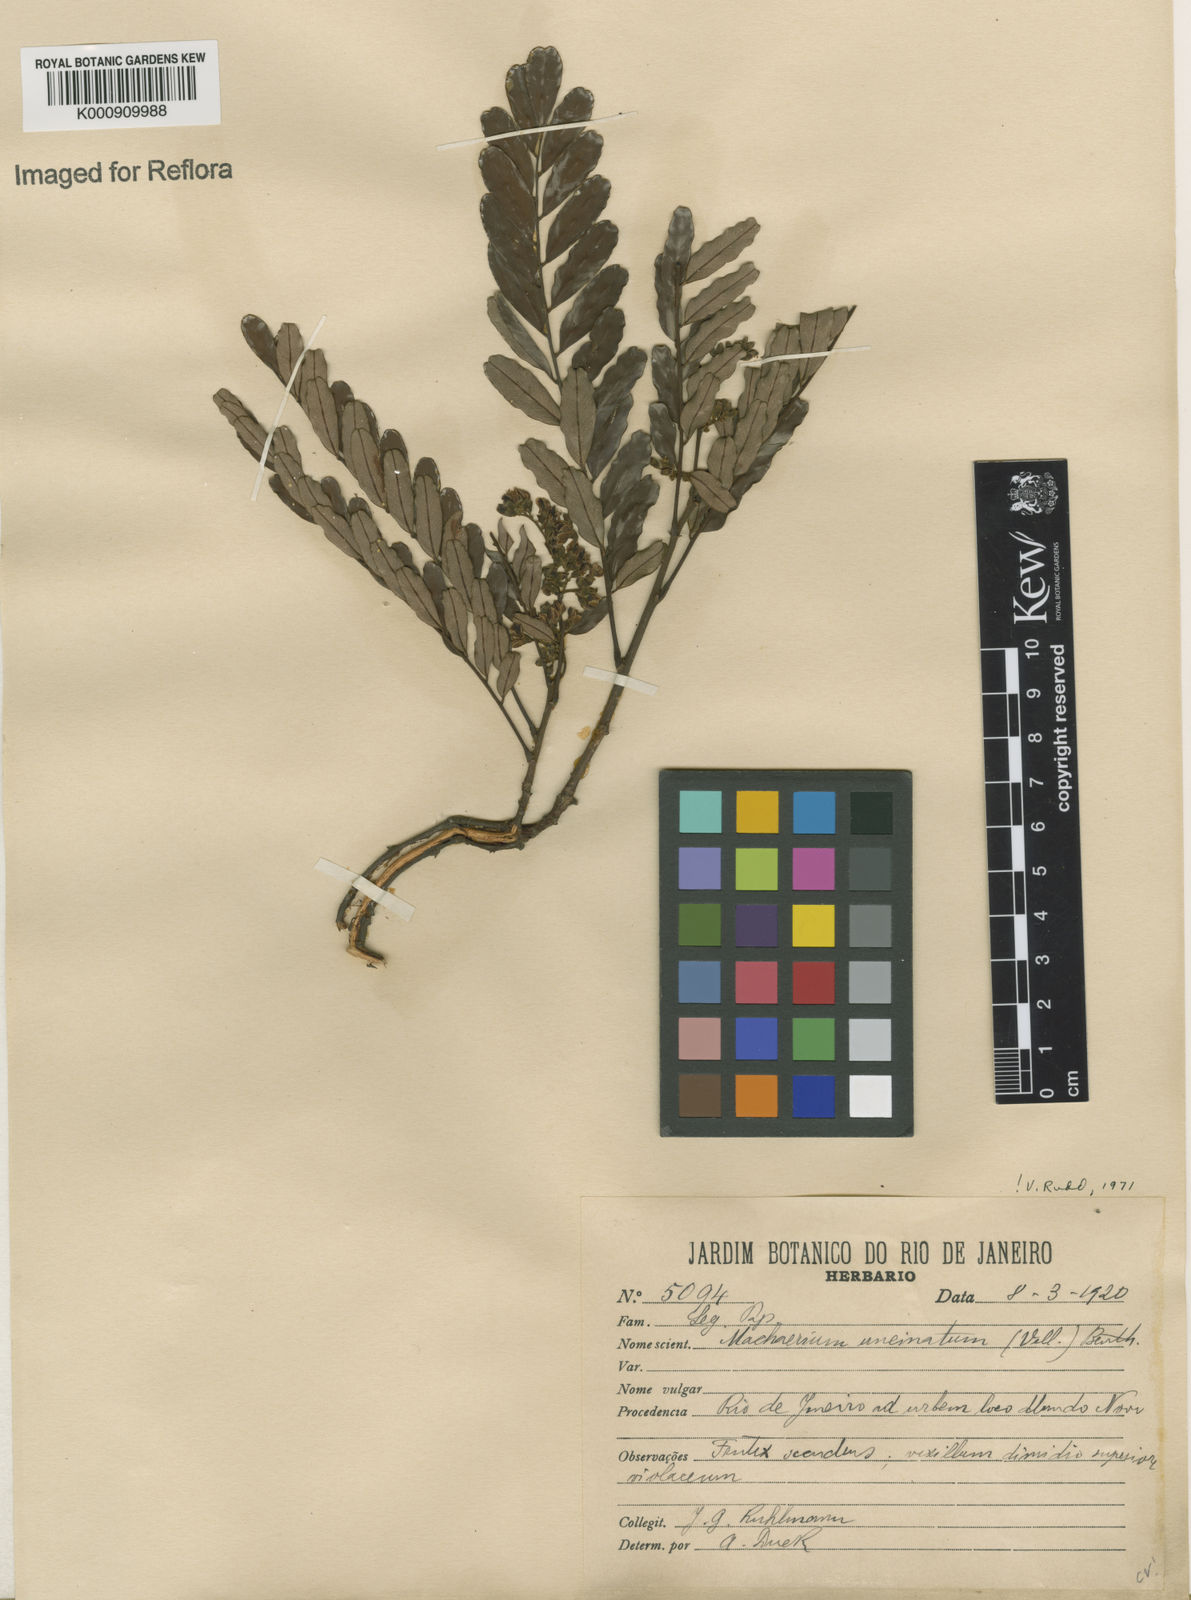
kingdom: Plantae
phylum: Tracheophyta
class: Magnoliopsida
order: Fabales
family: Fabaceae
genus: Machaerium
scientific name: Machaerium uncinatum
